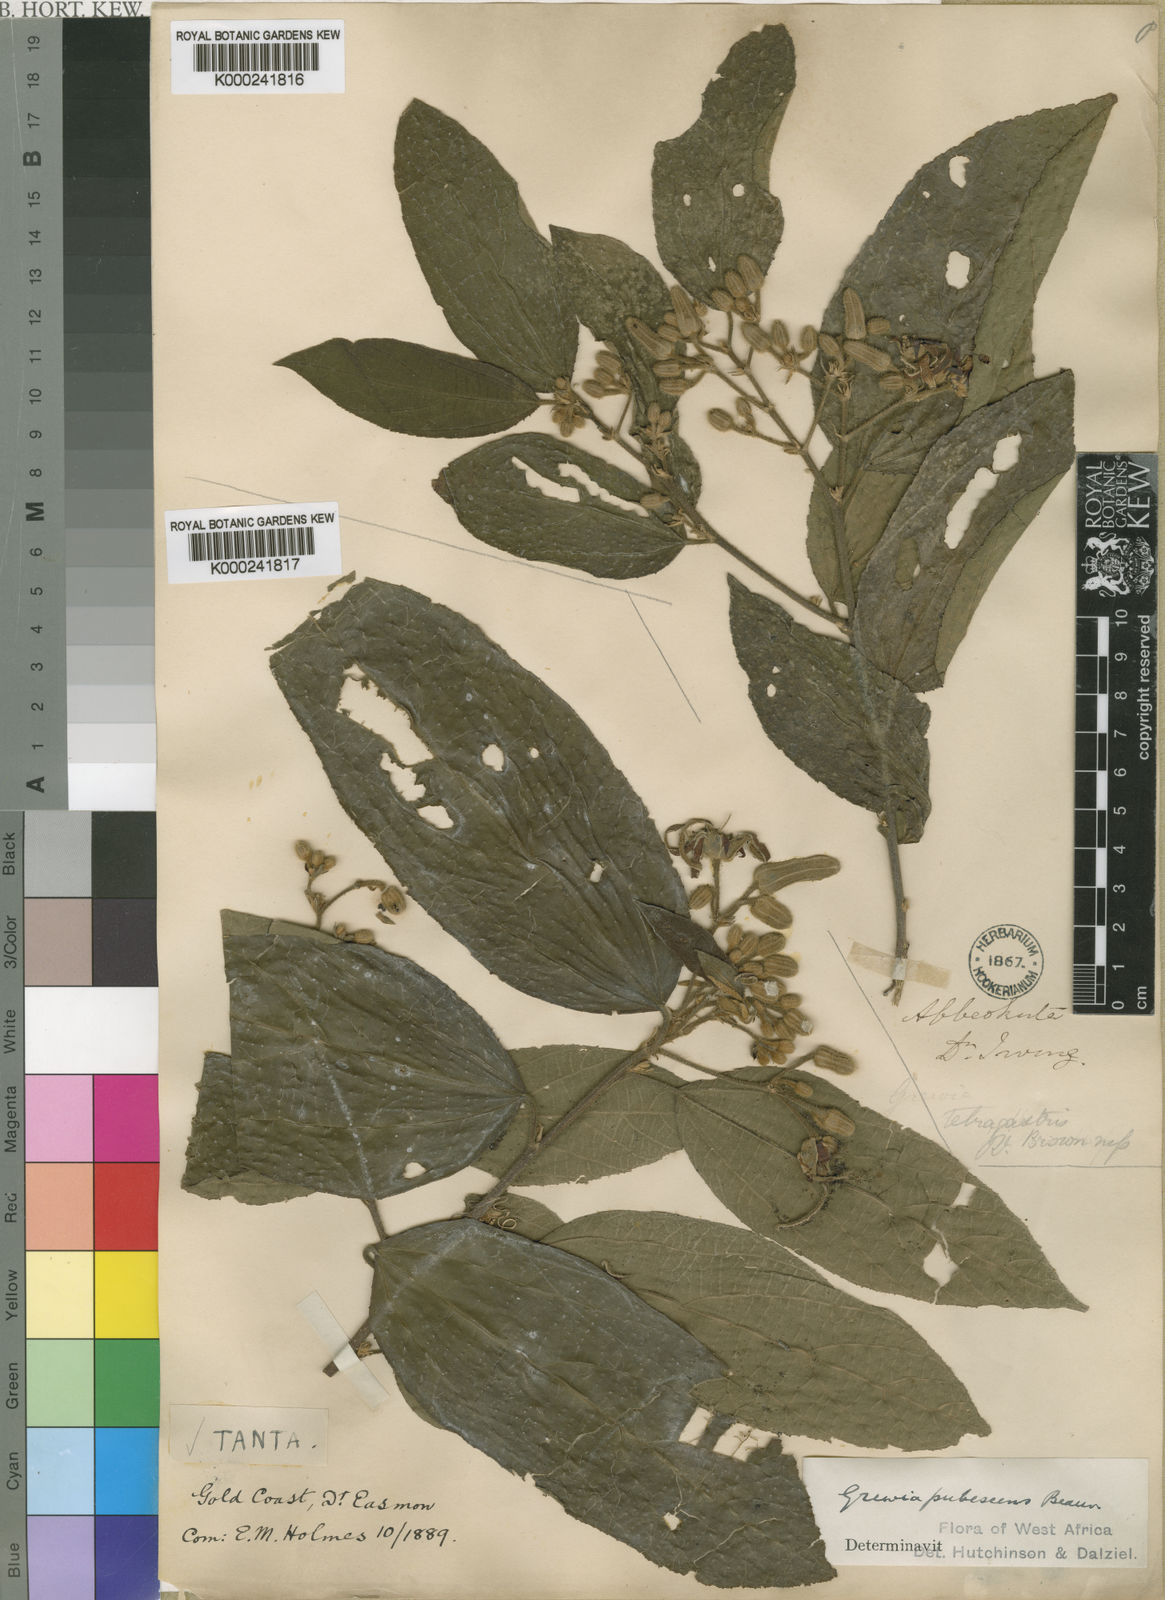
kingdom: Plantae
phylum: Tracheophyta
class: Magnoliopsida
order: Malvales
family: Malvaceae
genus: Grewia
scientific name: Grewia pubescens
